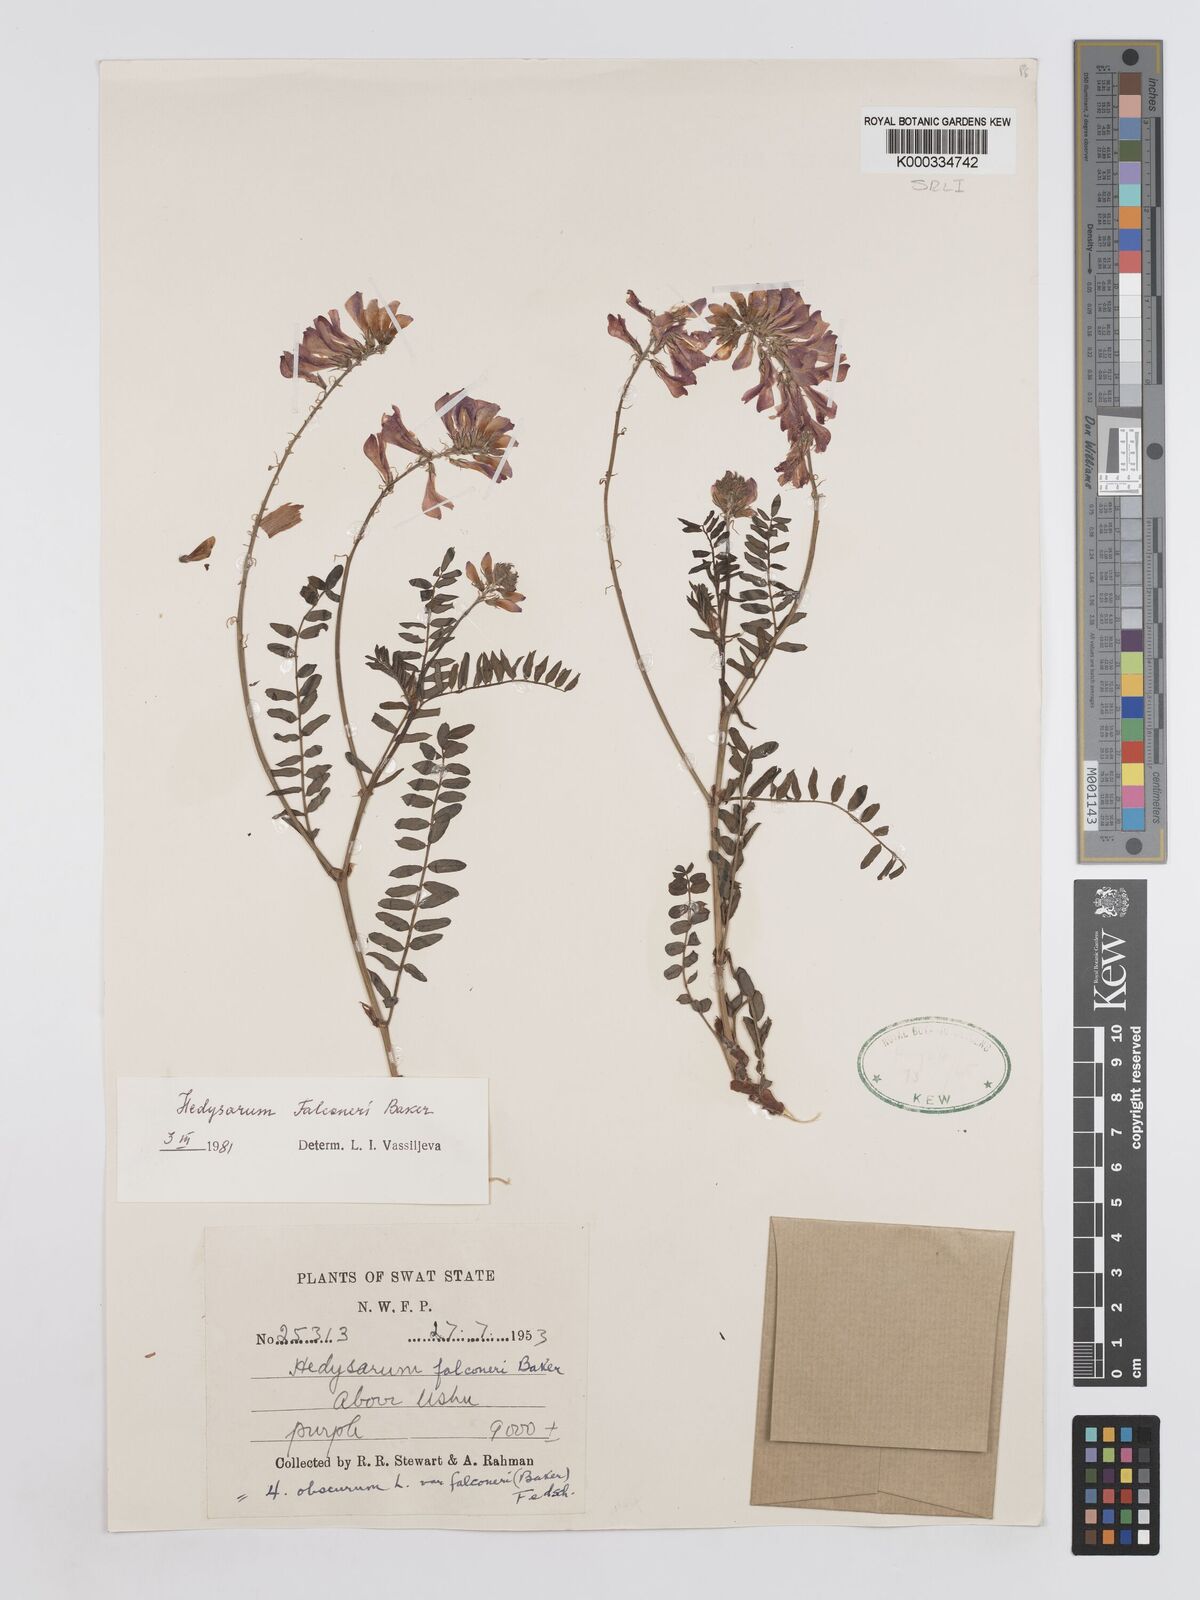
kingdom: Plantae
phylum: Tracheophyta
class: Magnoliopsida
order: Fabales
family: Fabaceae
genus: Hedysarum
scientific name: Hedysarum falconeri
